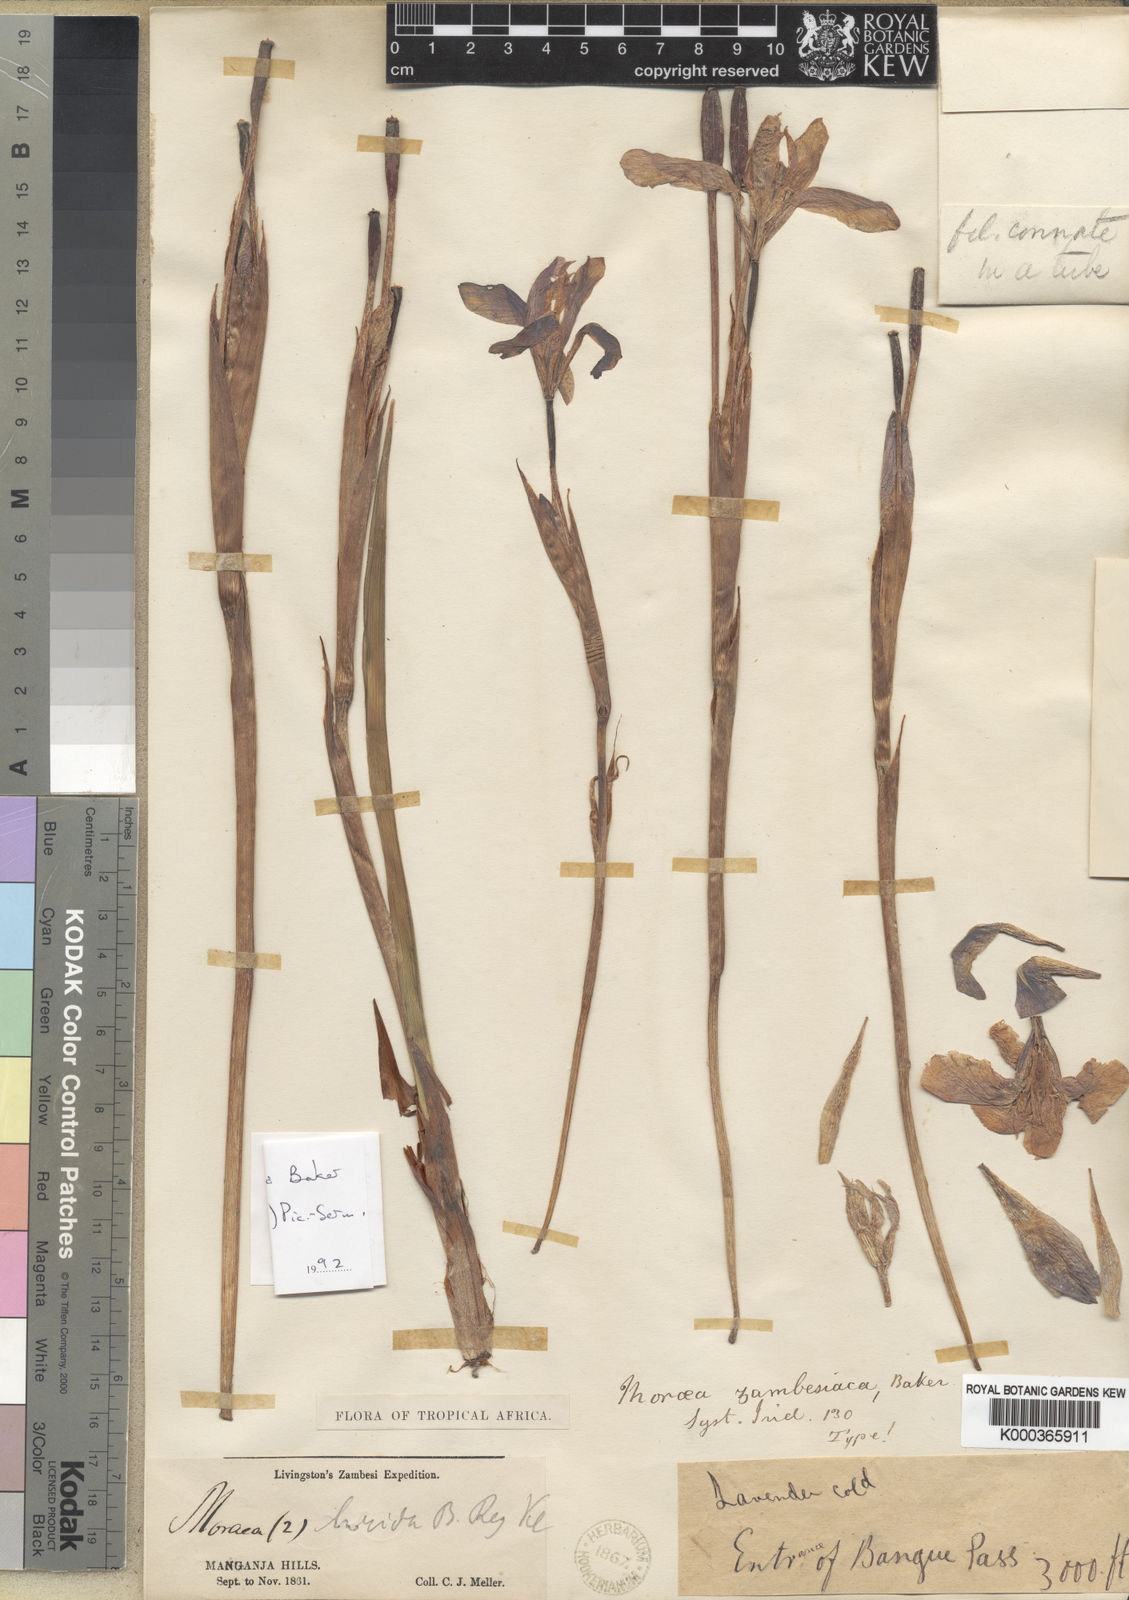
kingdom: Plantae
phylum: Tracheophyta
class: Liliopsida
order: Asparagales
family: Iridaceae
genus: Moraea
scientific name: Moraea schimperi
